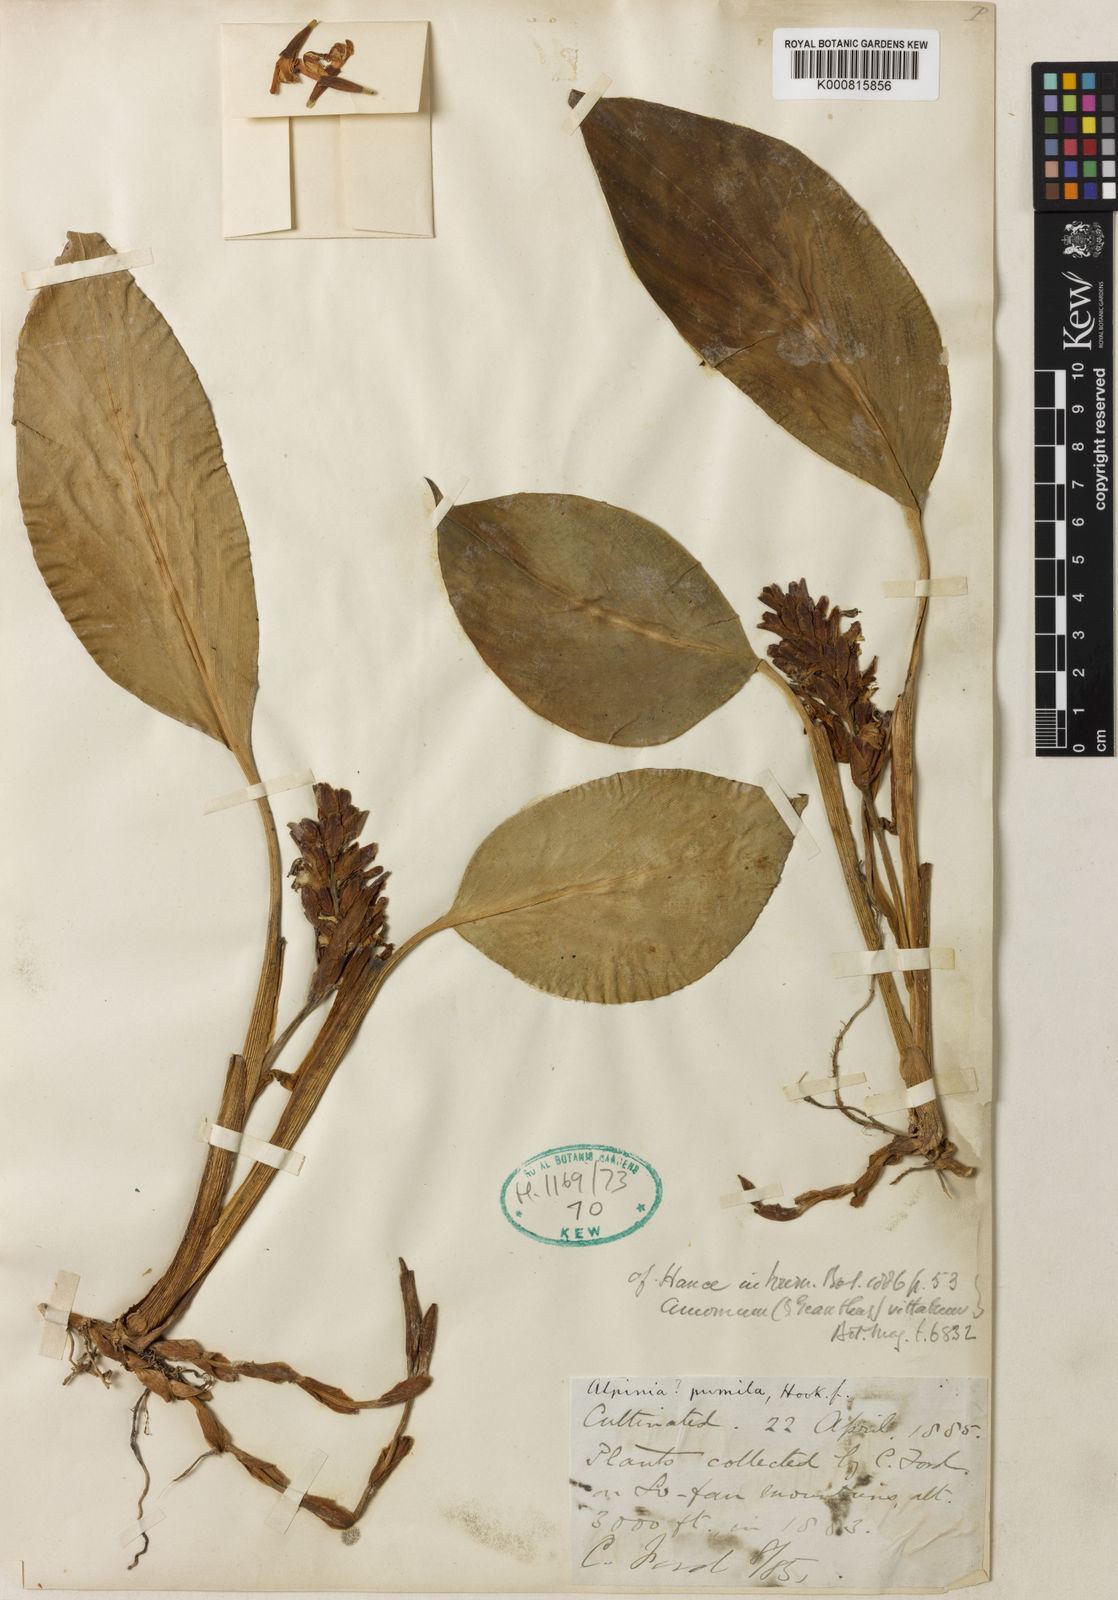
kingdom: Plantae
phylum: Tracheophyta
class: Liliopsida
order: Zingiberales
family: Zingiberaceae
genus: Alpinia
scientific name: Alpinia pumila
